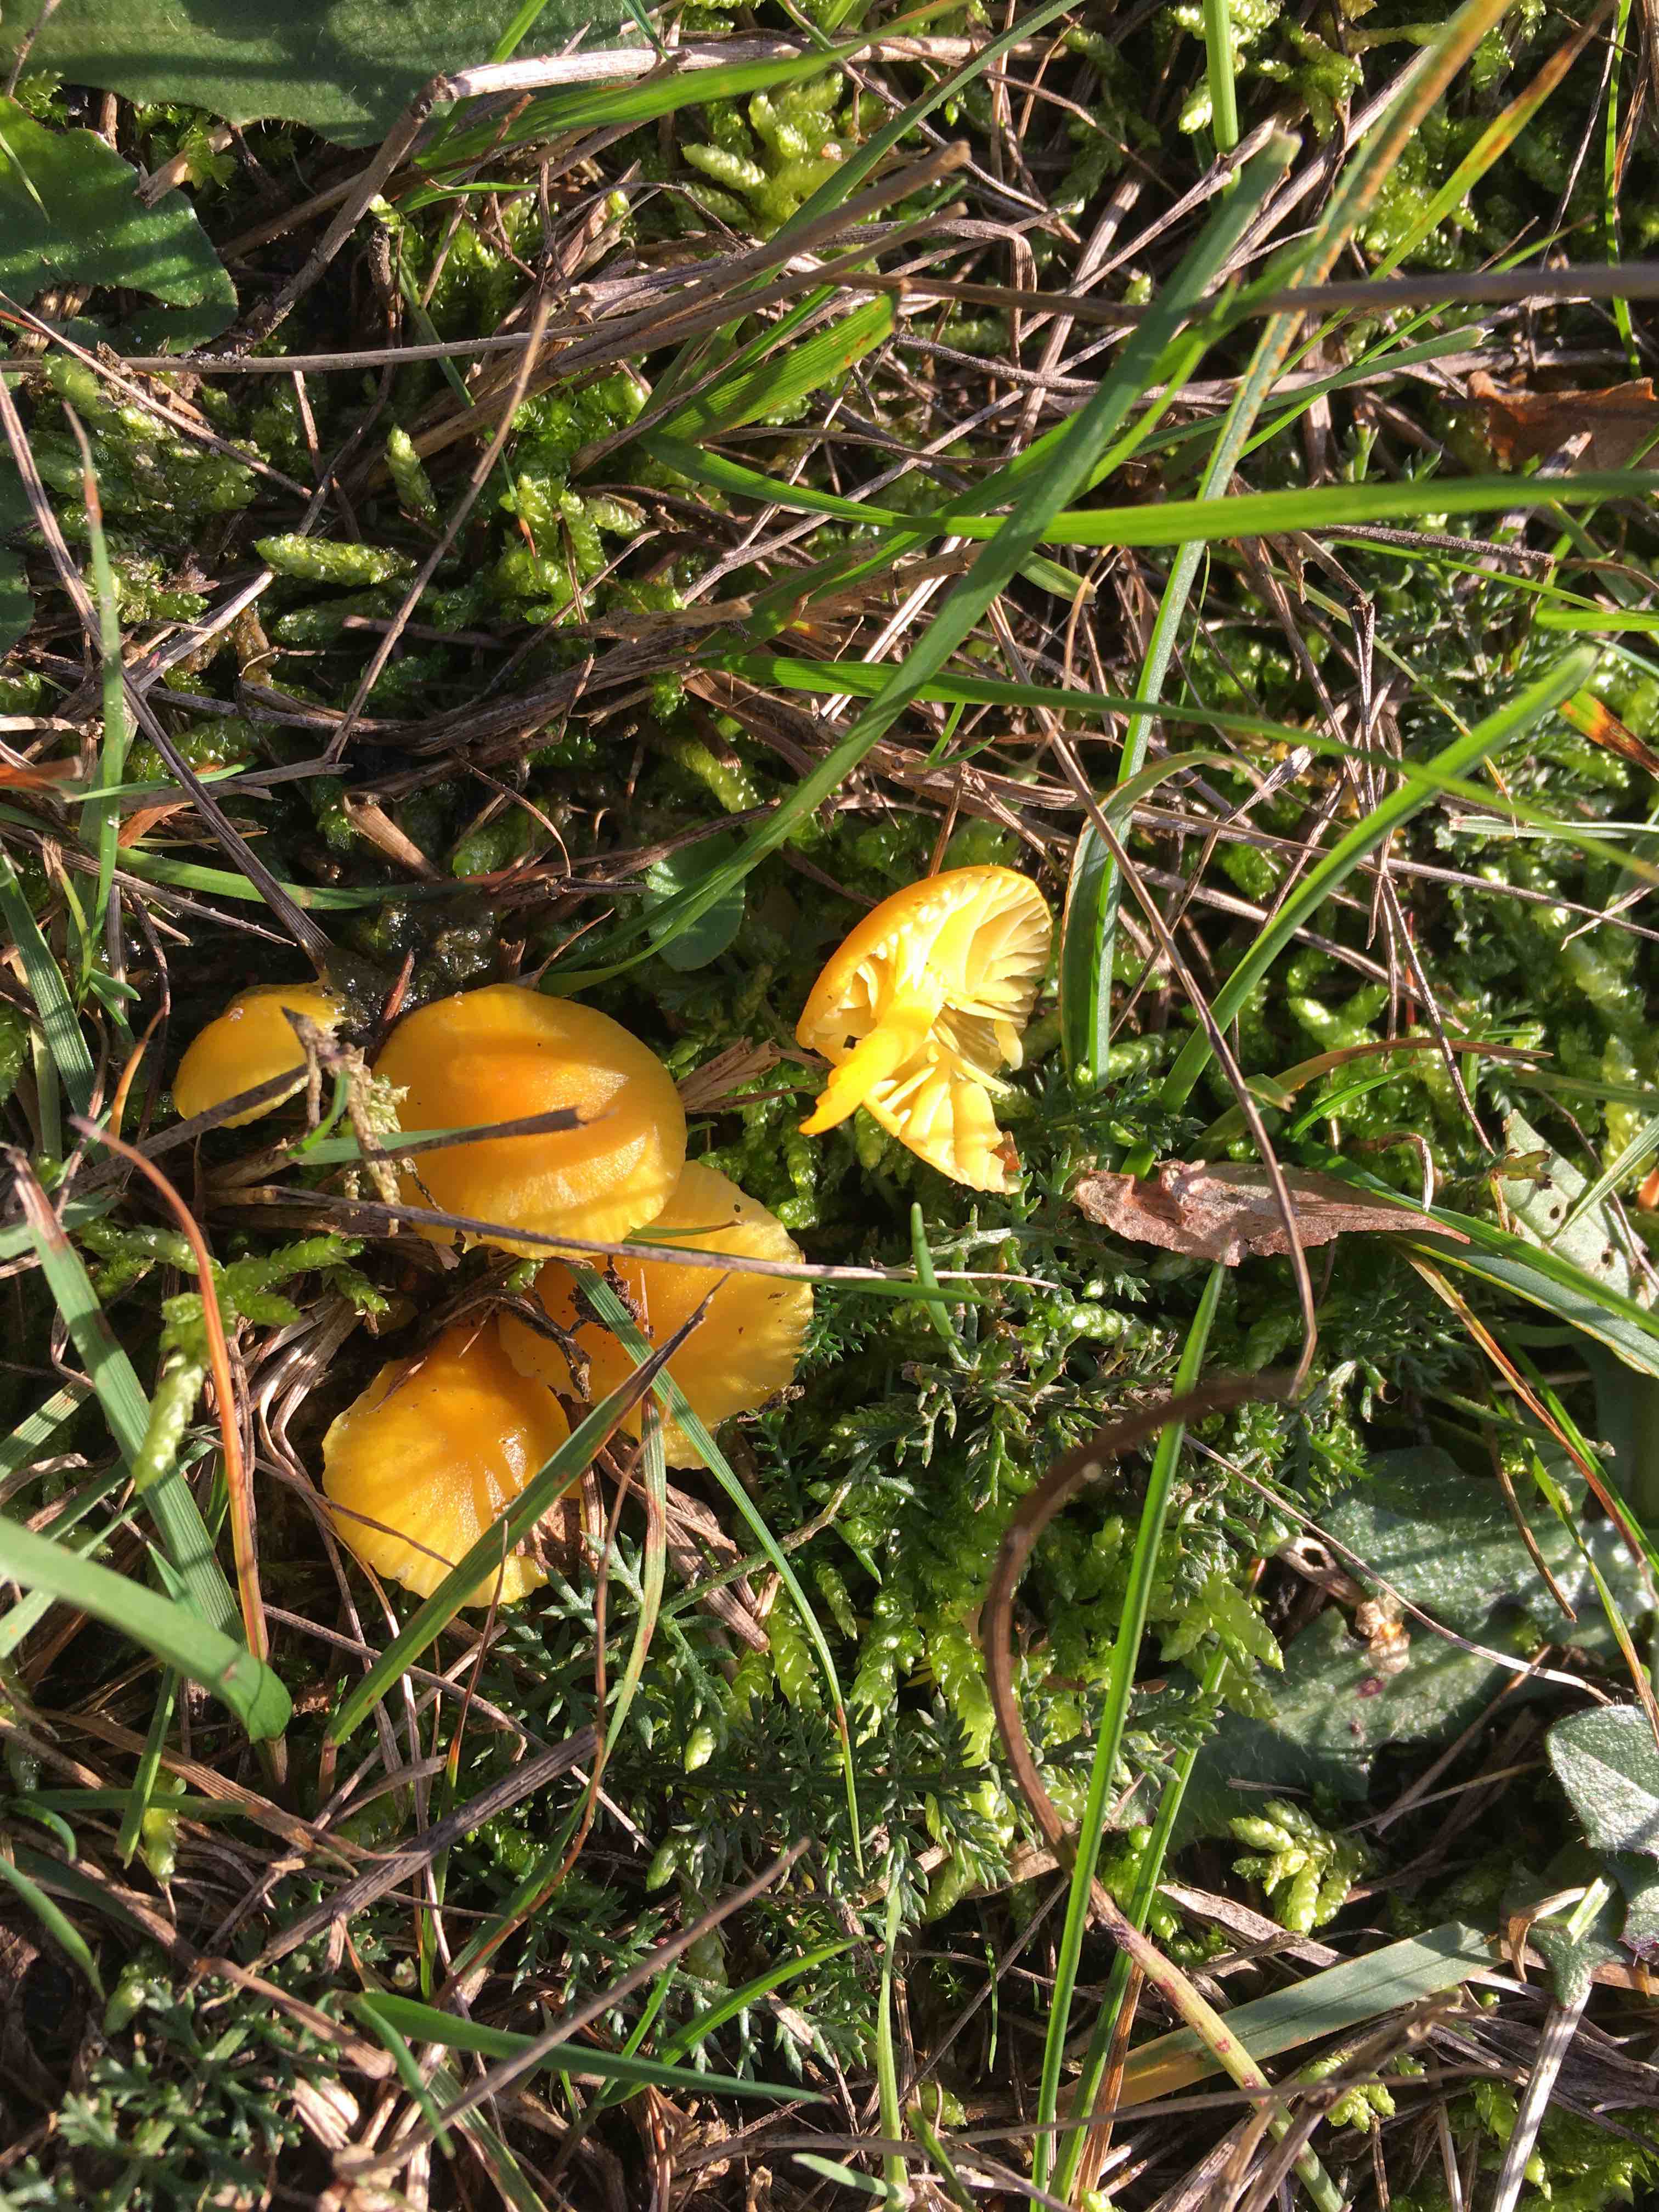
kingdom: Fungi
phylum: Basidiomycota
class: Agaricomycetes
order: Agaricales
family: Hygrophoraceae
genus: Hygrocybe
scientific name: Hygrocybe ceracea
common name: voksgul vokshat
